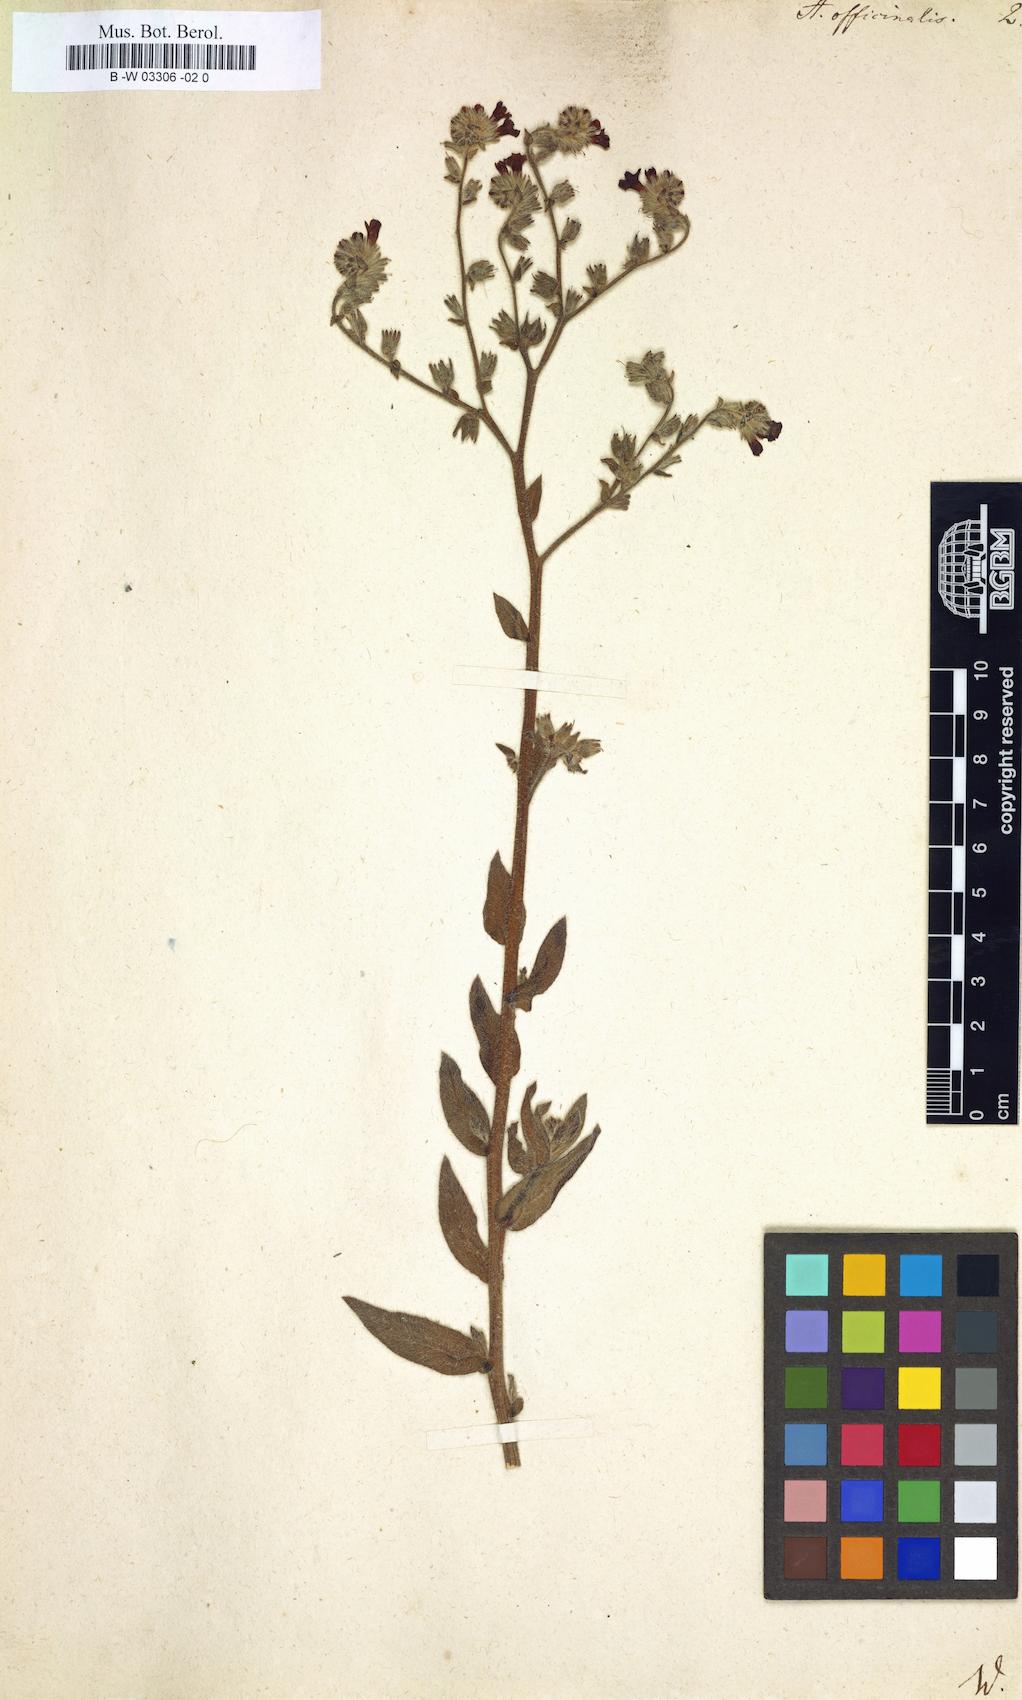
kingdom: Plantae
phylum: Tracheophyta
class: Magnoliopsida
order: Boraginales
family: Boraginaceae
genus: Anchusa
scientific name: Anchusa officinalis
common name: Alkanet
